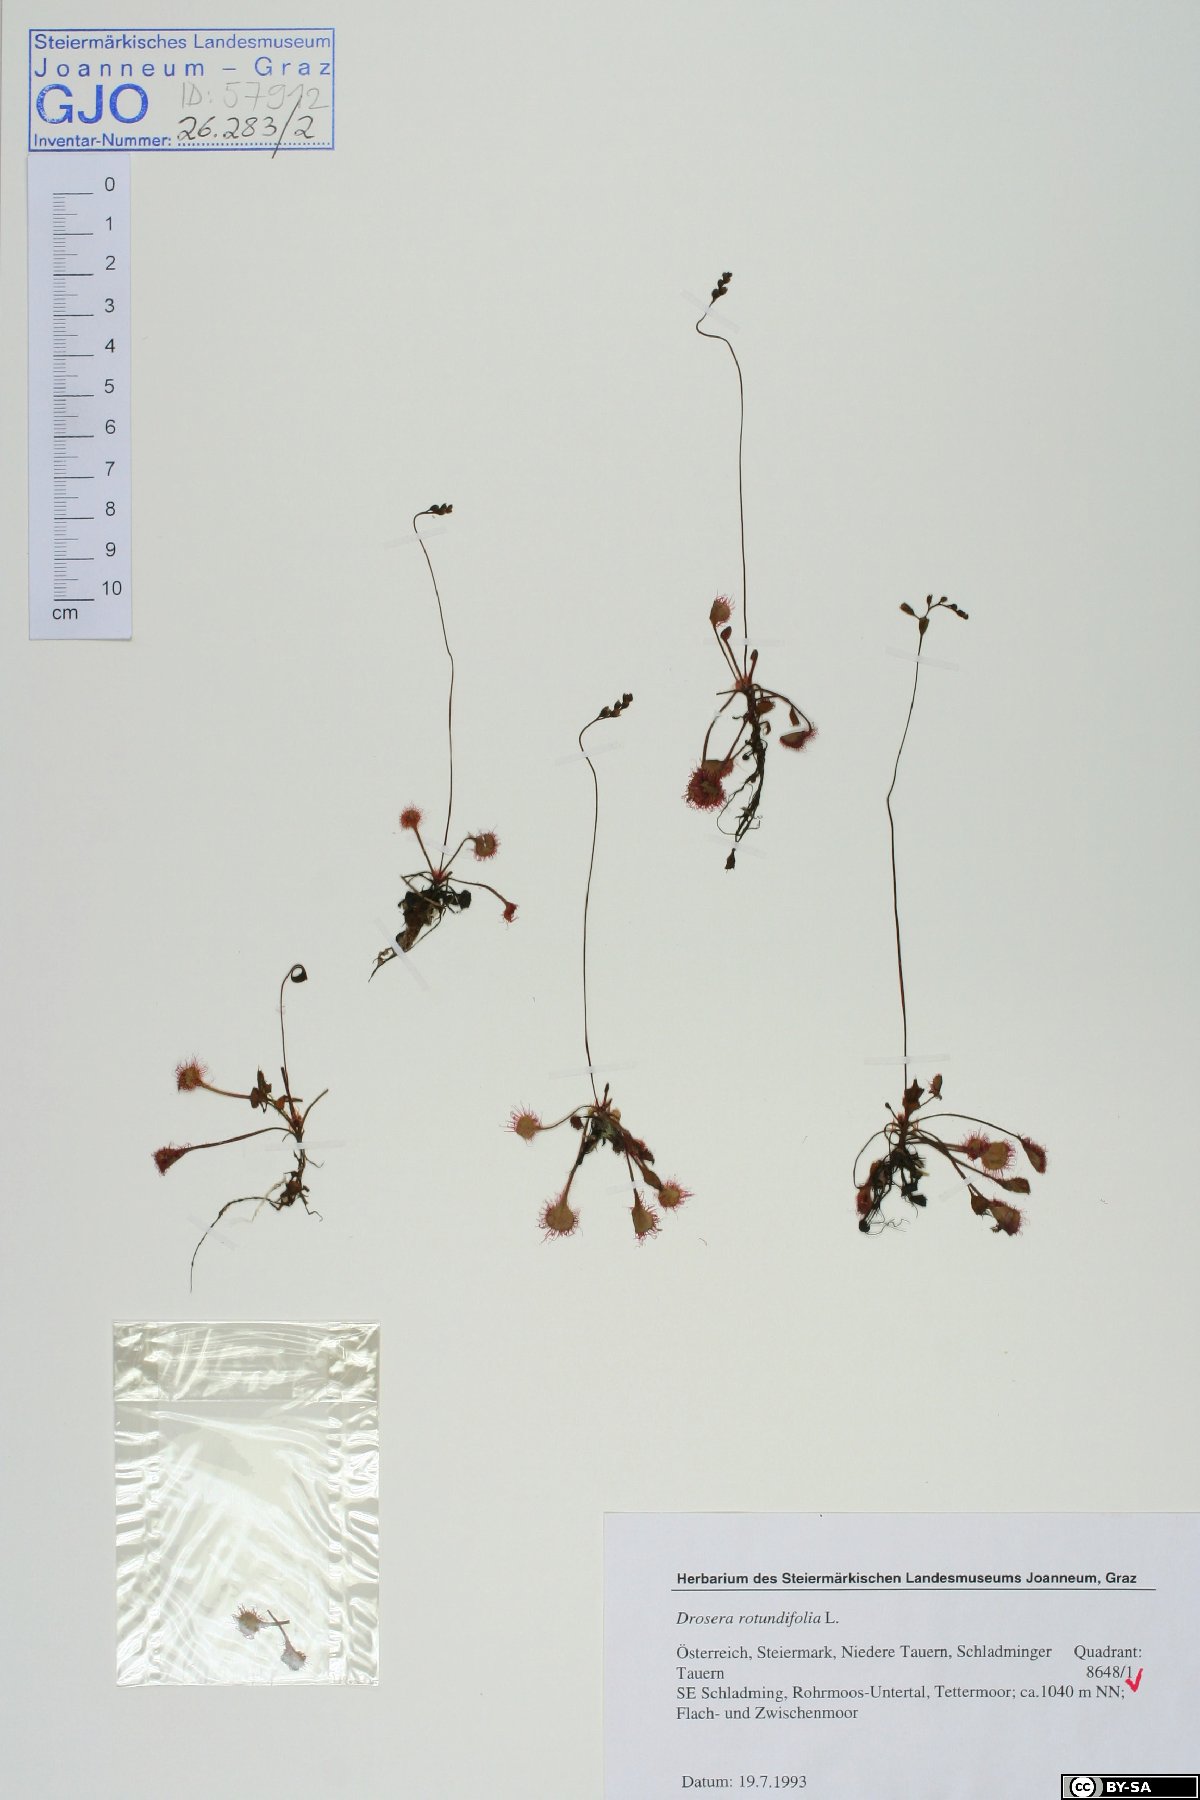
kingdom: Plantae
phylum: Tracheophyta
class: Magnoliopsida
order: Caryophyllales
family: Droseraceae
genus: Drosera
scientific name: Drosera rotundifolia
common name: Round-leaved sundew
